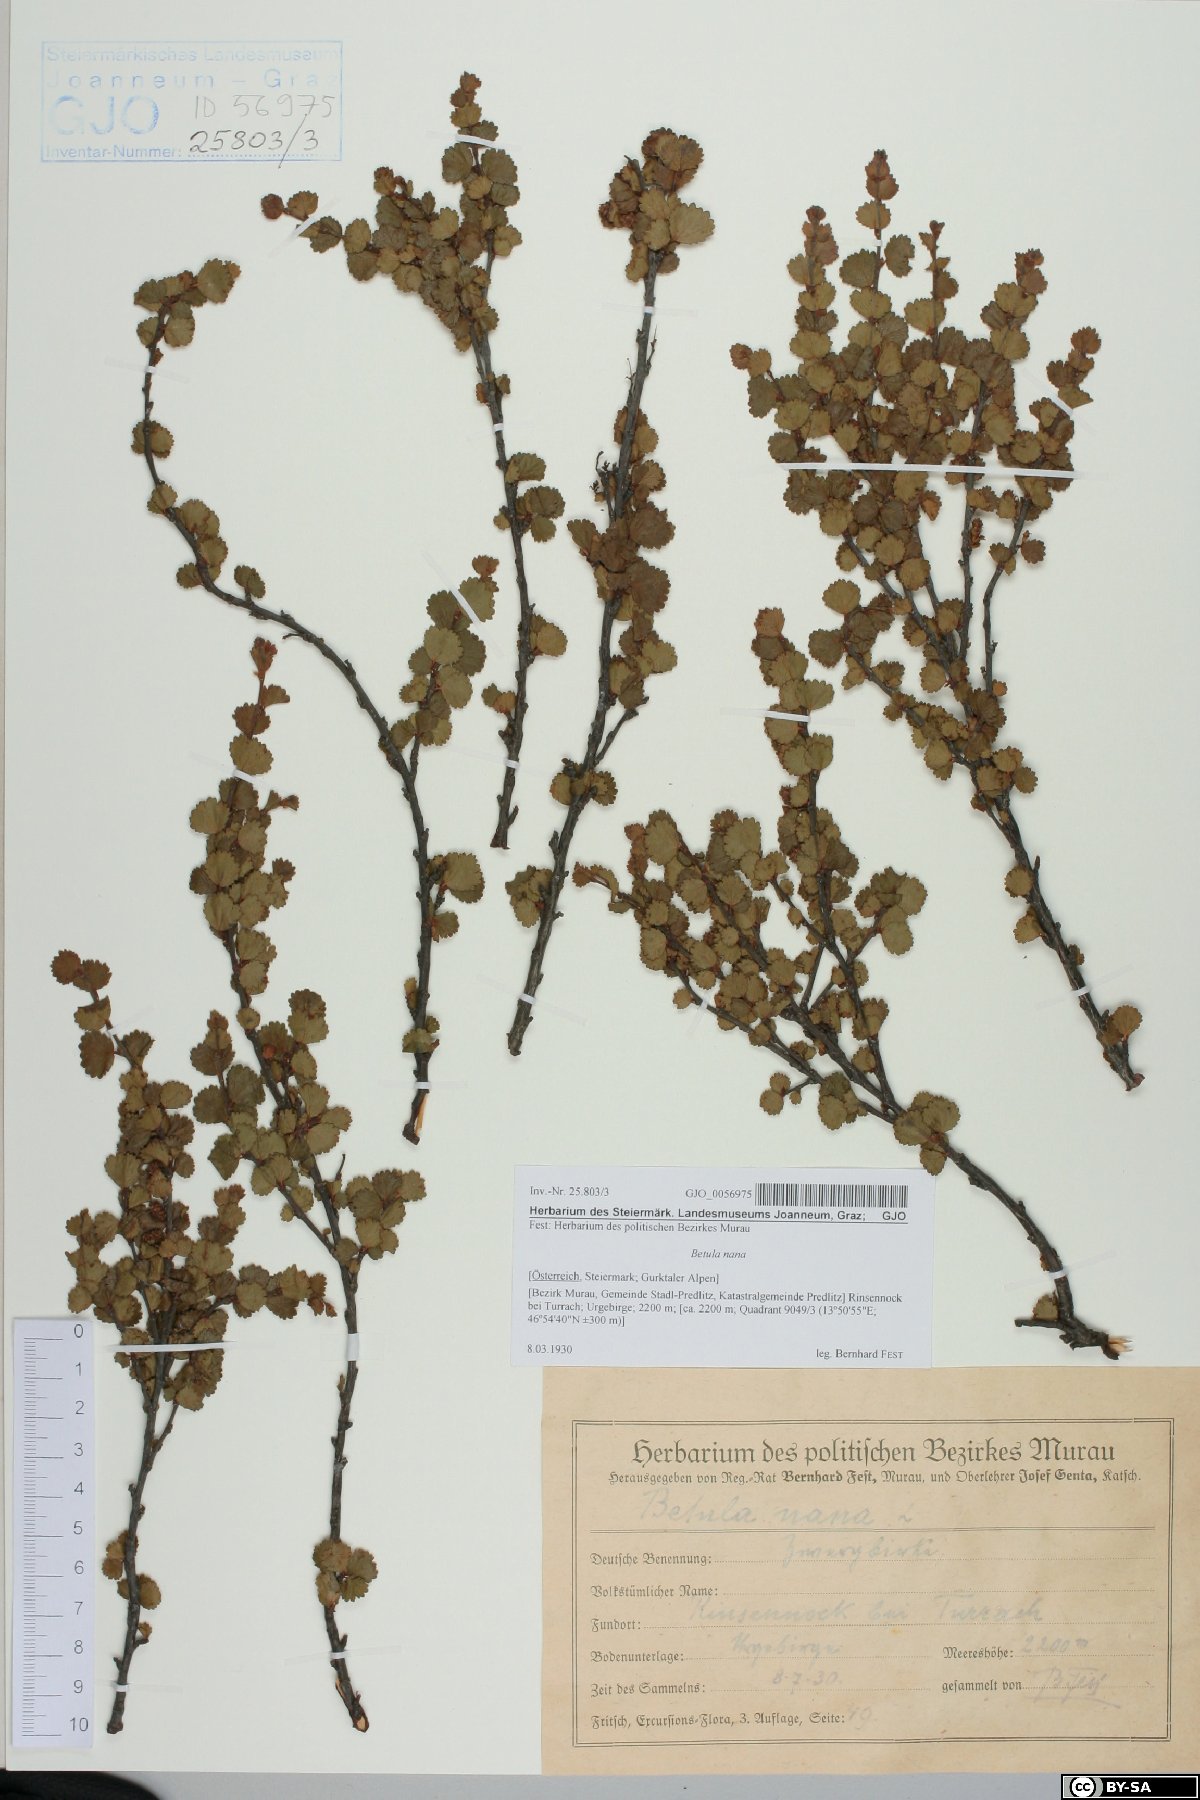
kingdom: Plantae
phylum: Tracheophyta
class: Magnoliopsida
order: Fagales
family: Betulaceae
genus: Betula
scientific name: Betula nana
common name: Arctic dwarf birch
